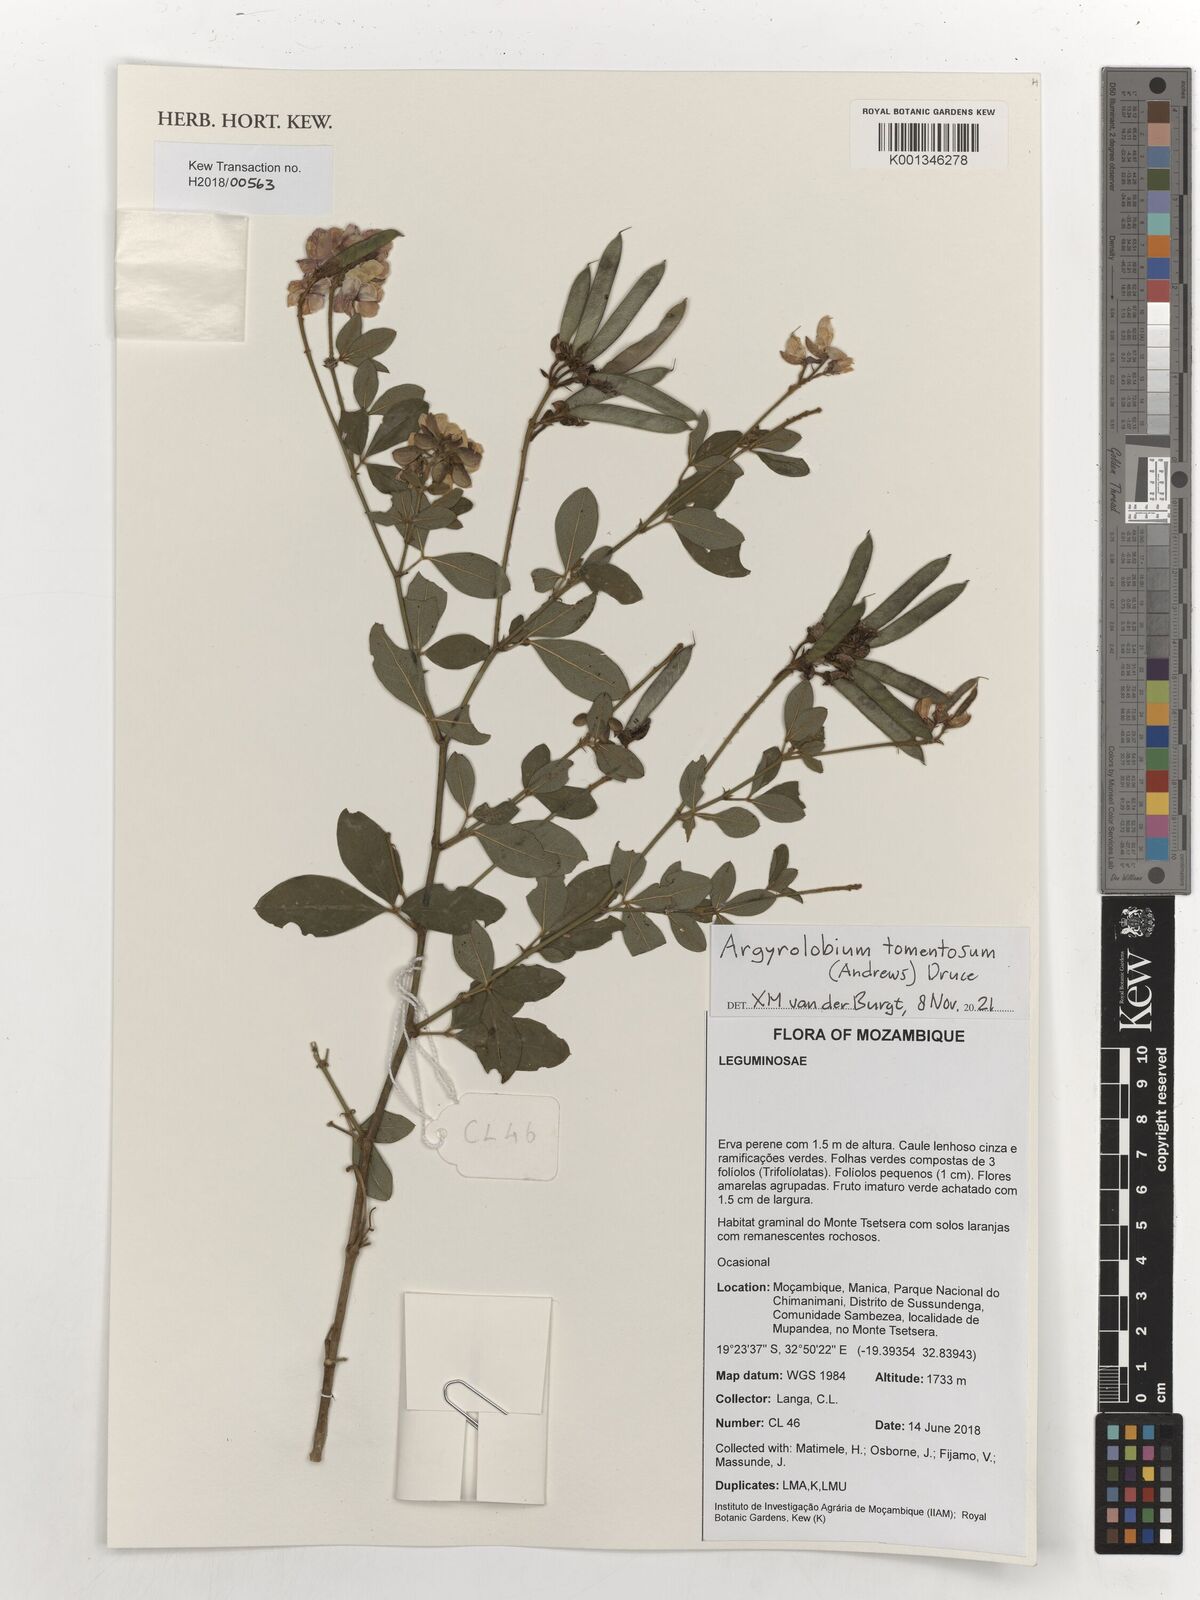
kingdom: Plantae
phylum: Tracheophyta
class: Magnoliopsida
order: Fabales
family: Fabaceae
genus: Argyrolobium
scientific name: Argyrolobium tomentosum
